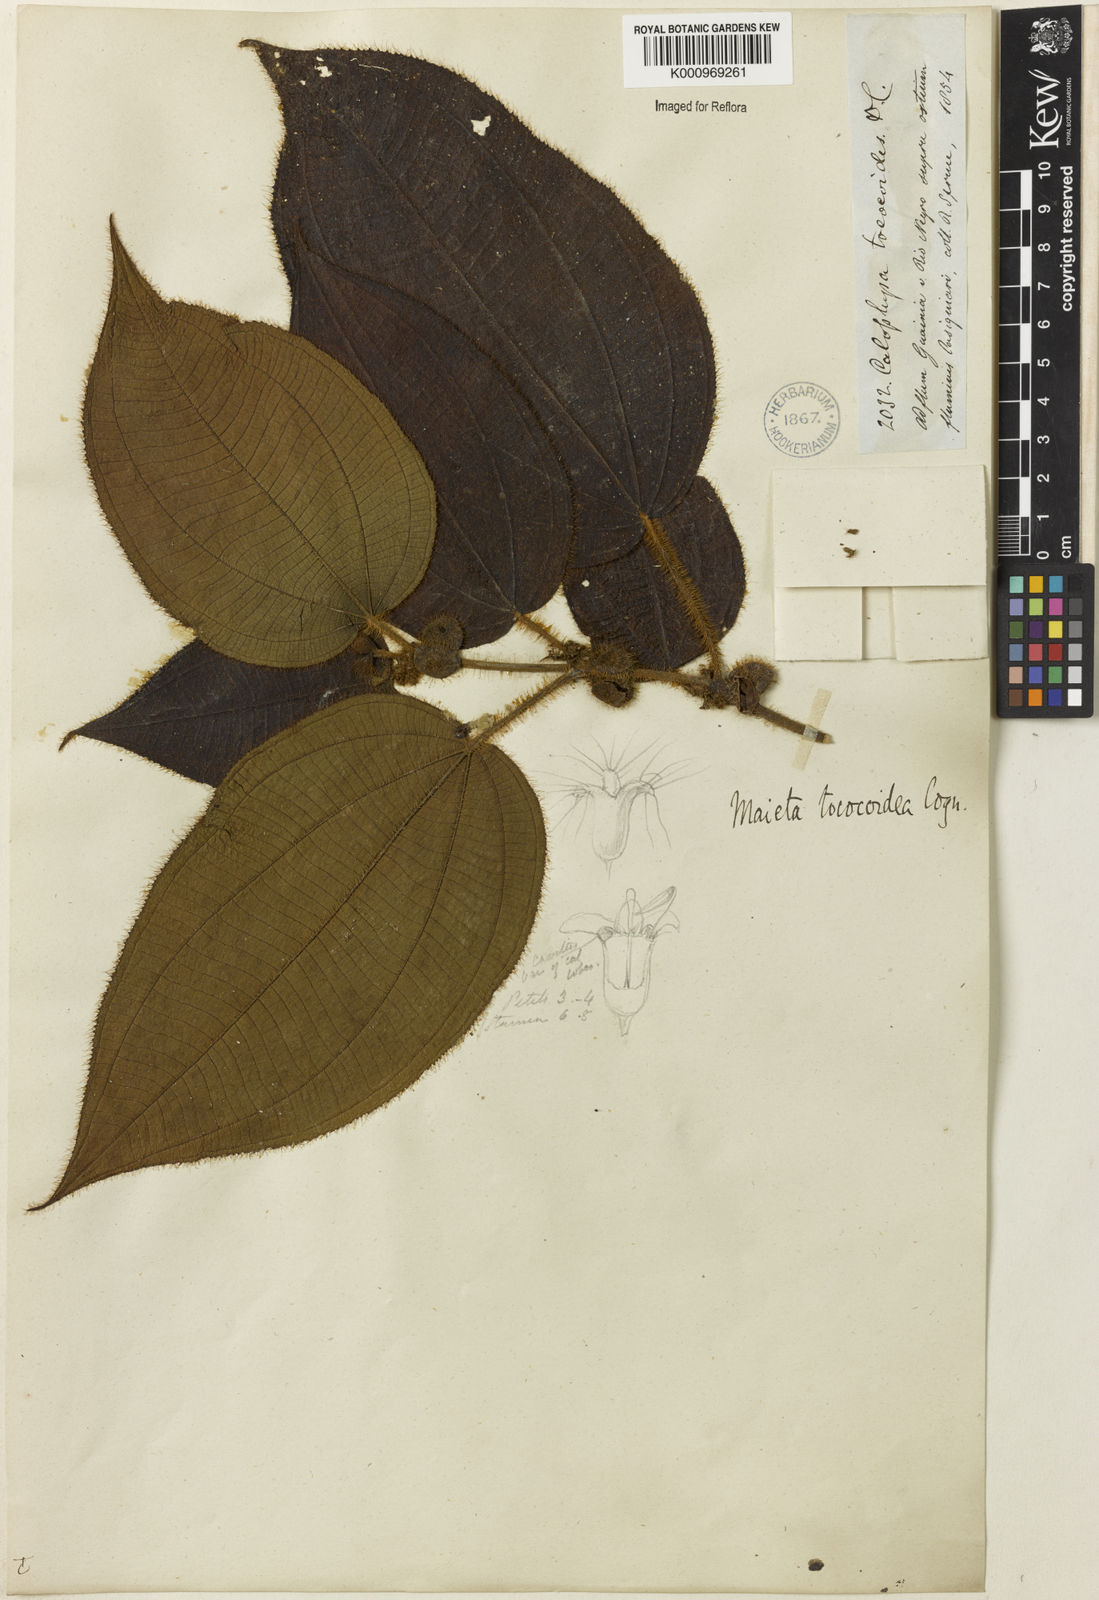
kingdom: Plantae
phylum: Tracheophyta
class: Magnoliopsida
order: Myrtales
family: Melastomataceae
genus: Miconia
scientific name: Miconia tococoidea
